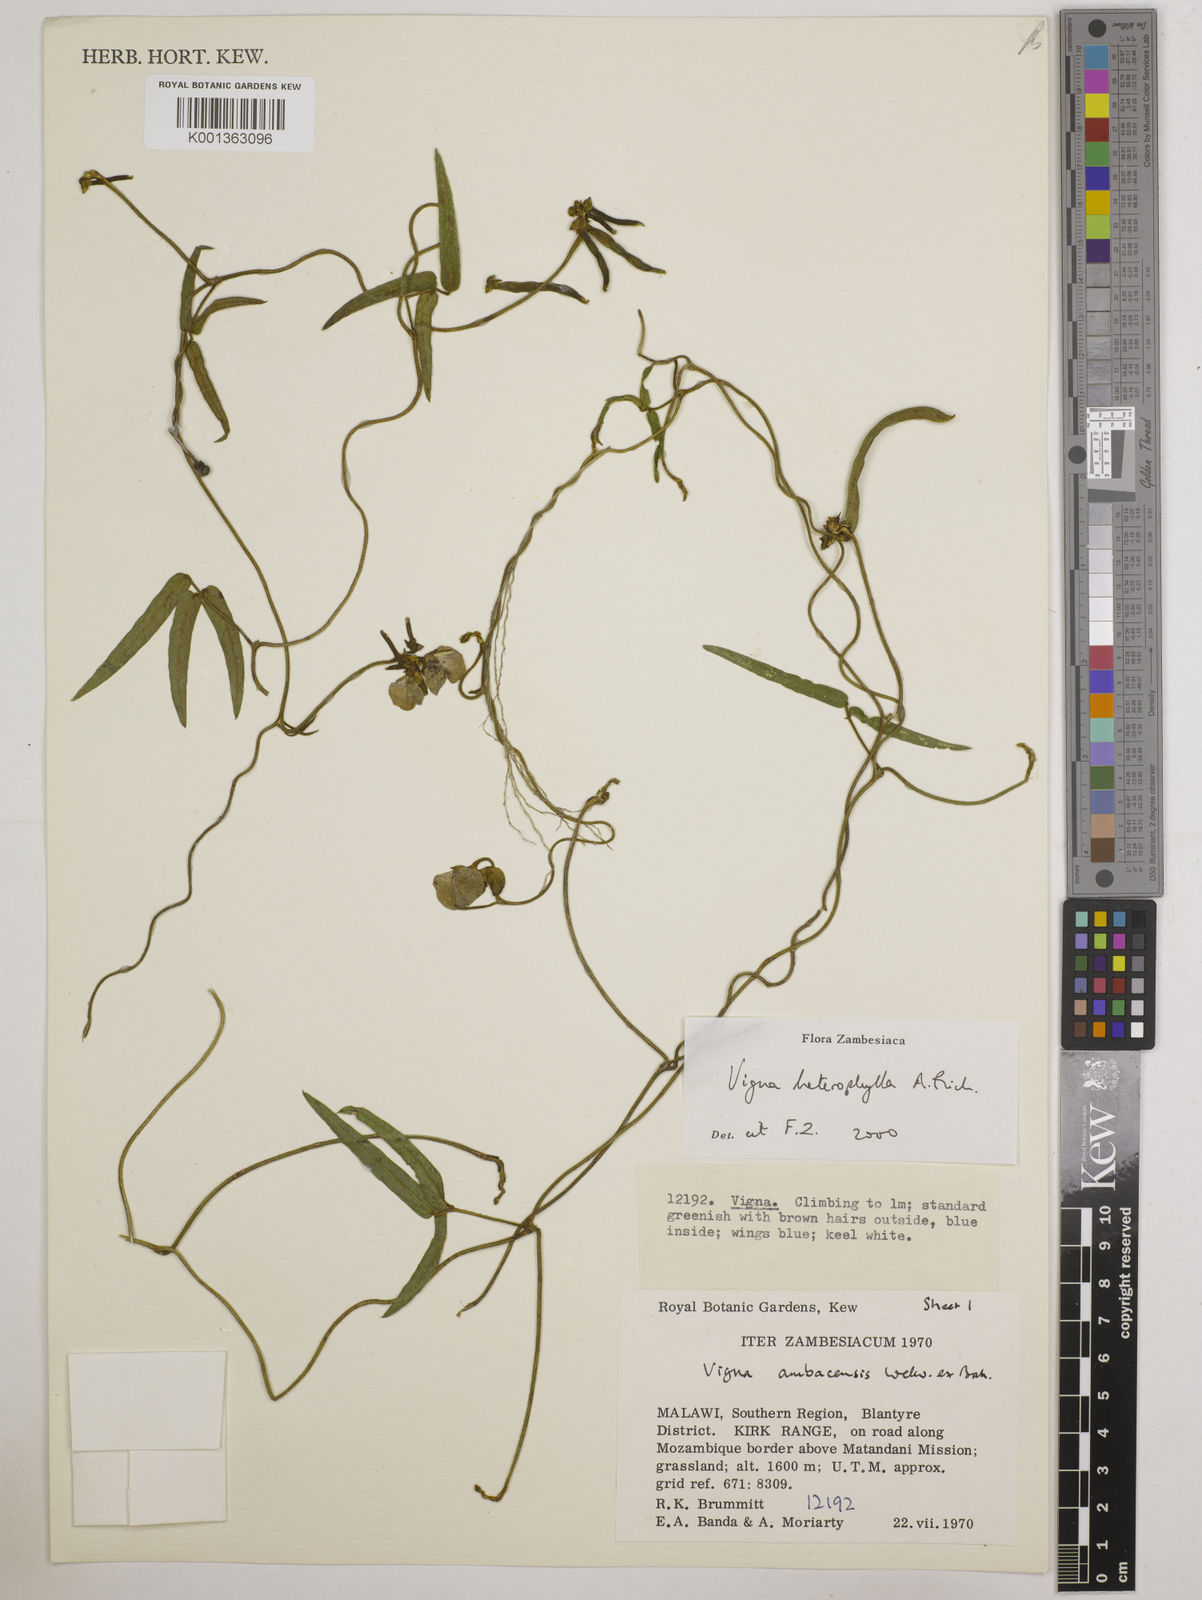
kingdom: Plantae
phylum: Tracheophyta
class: Magnoliopsida
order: Fabales
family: Fabaceae
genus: Vigna
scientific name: Vigna heterophylla
